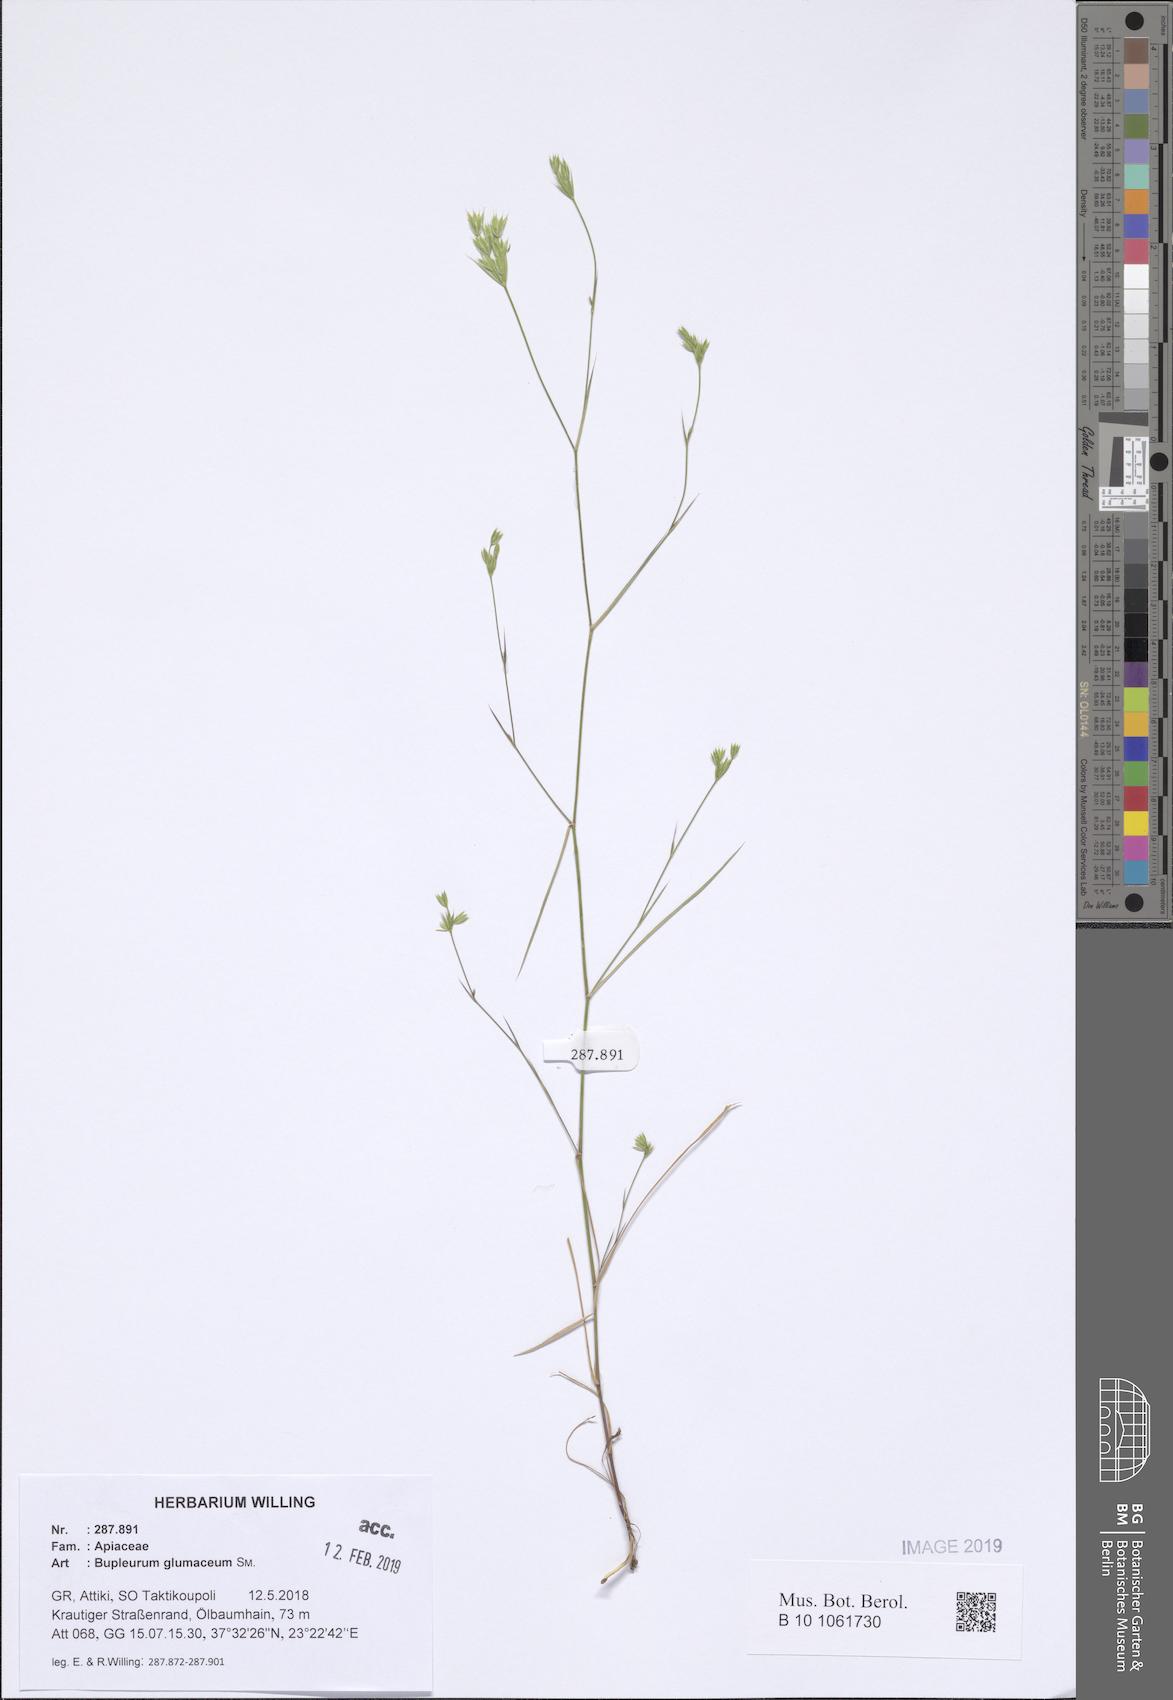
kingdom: Plantae
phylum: Tracheophyta
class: Magnoliopsida
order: Apiales
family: Apiaceae
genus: Bupleurum
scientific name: Bupleurum glumaceum
